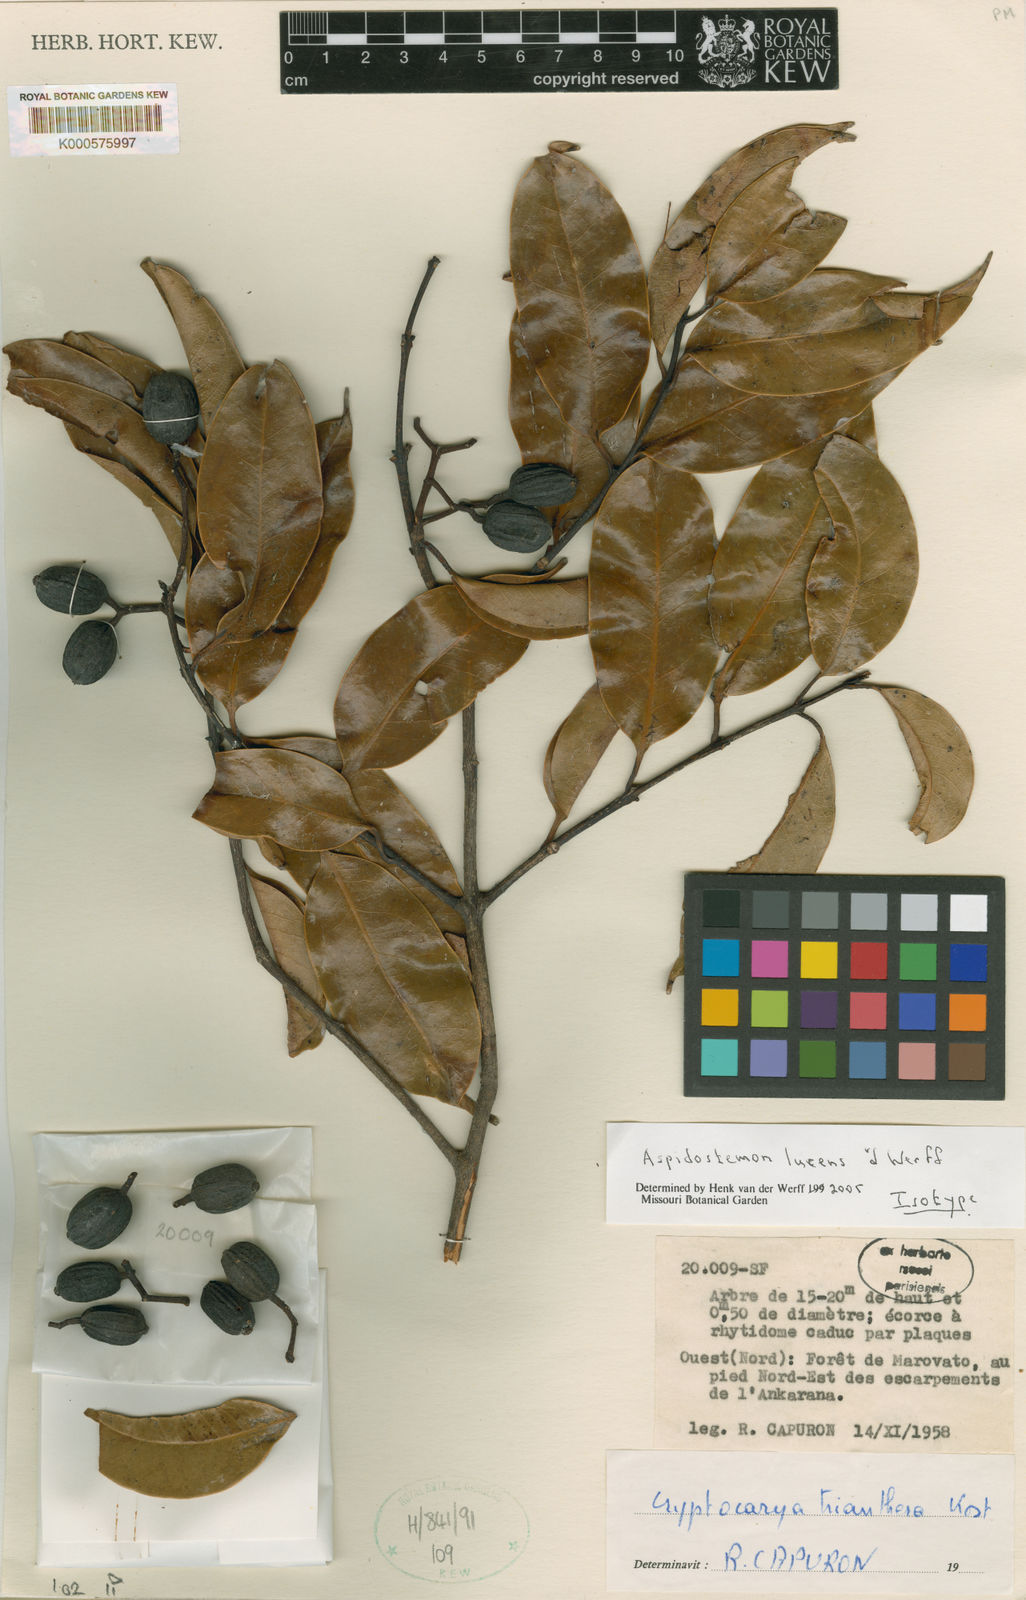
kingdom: Plantae
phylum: Tracheophyta
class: Magnoliopsida
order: Laurales
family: Lauraceae
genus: Aspidostemon
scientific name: Aspidostemon lucens
